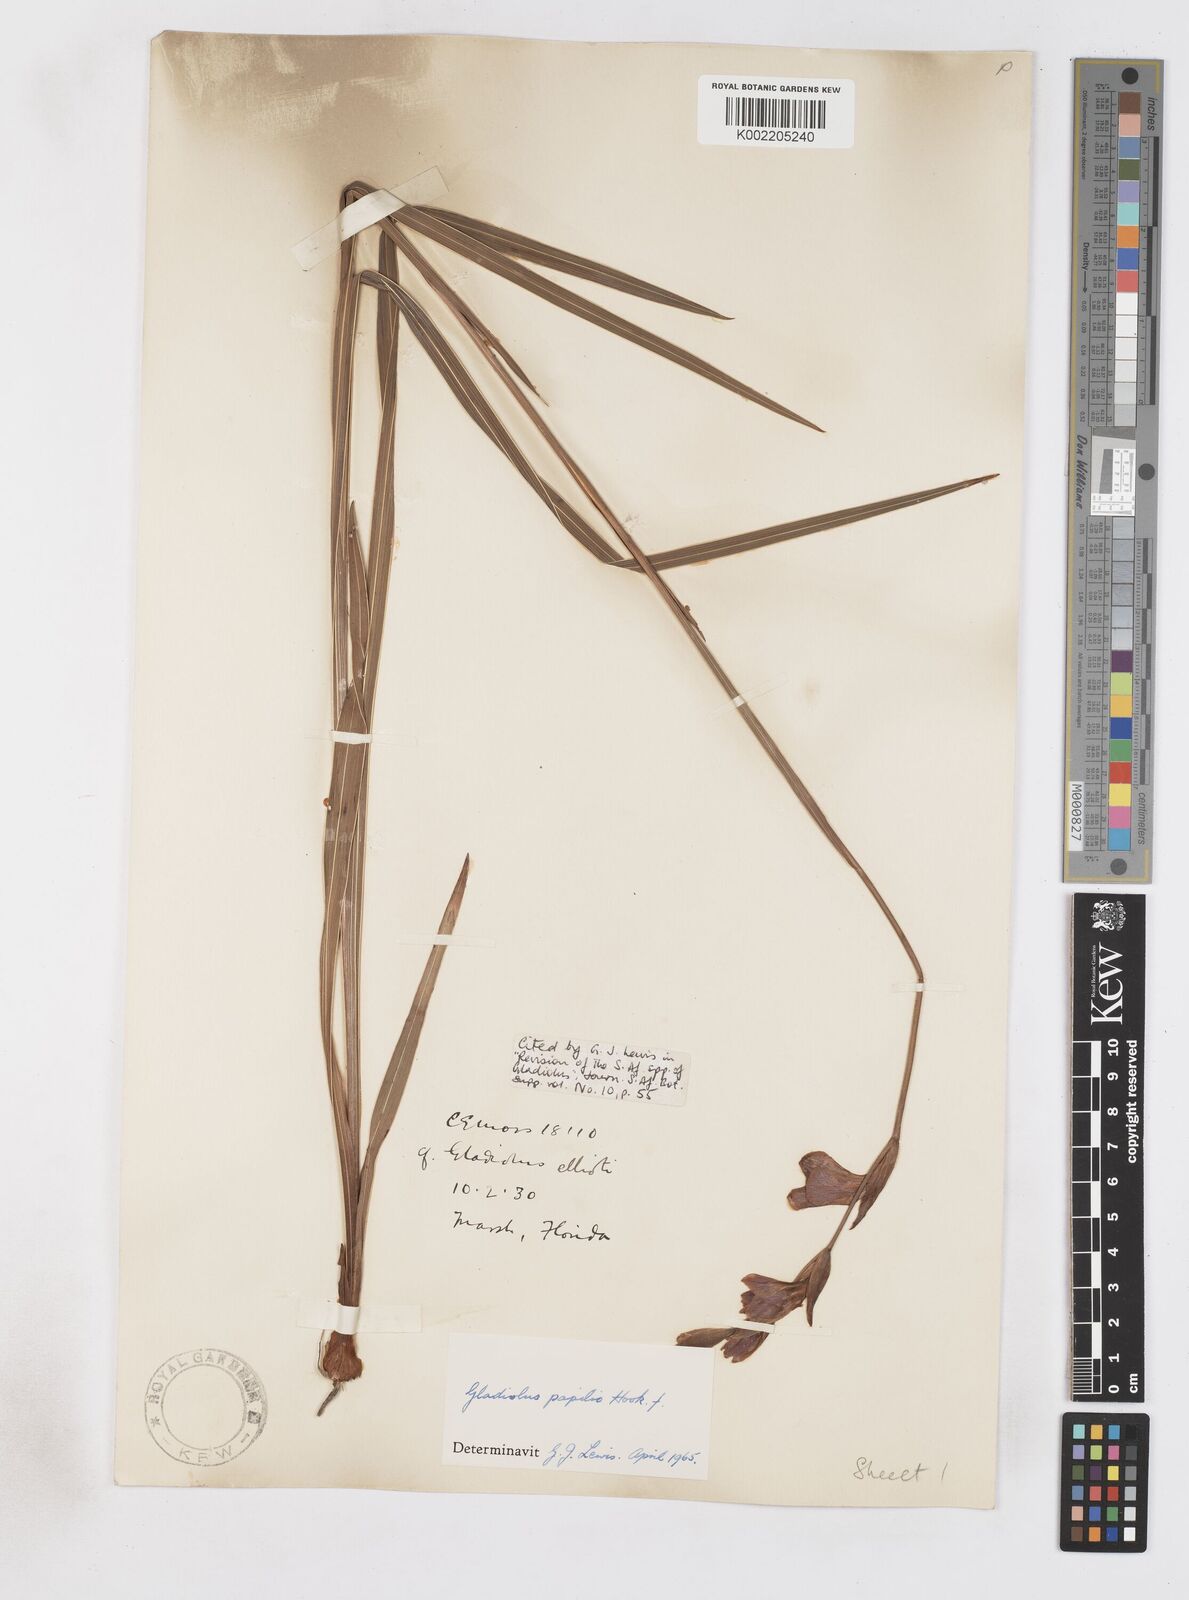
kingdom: Plantae
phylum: Tracheophyta
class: Liliopsida
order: Asparagales
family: Iridaceae
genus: Gladiolus
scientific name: Gladiolus papilio
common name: Goldblotch gladiolus
